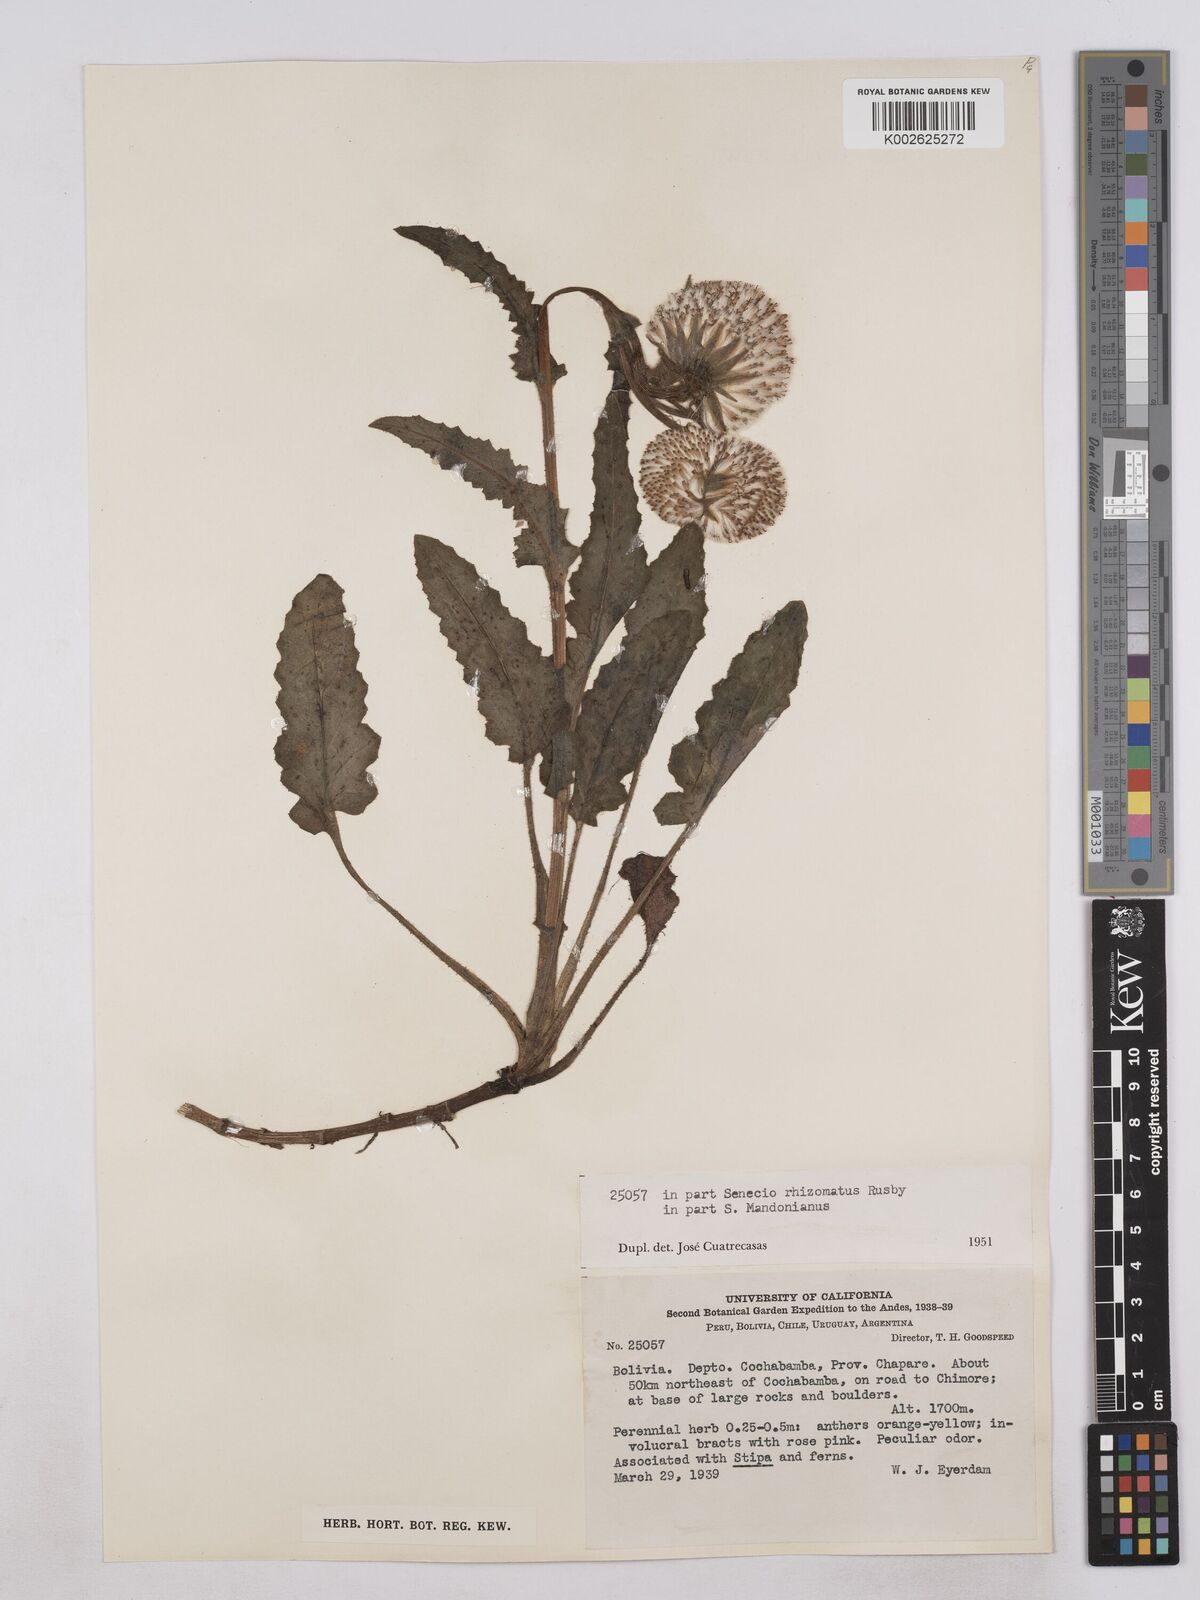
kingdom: Plantae
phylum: Tracheophyta
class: Magnoliopsida
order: Asterales
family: Asteraceae
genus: Senecio
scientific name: Senecio rhizomatus
